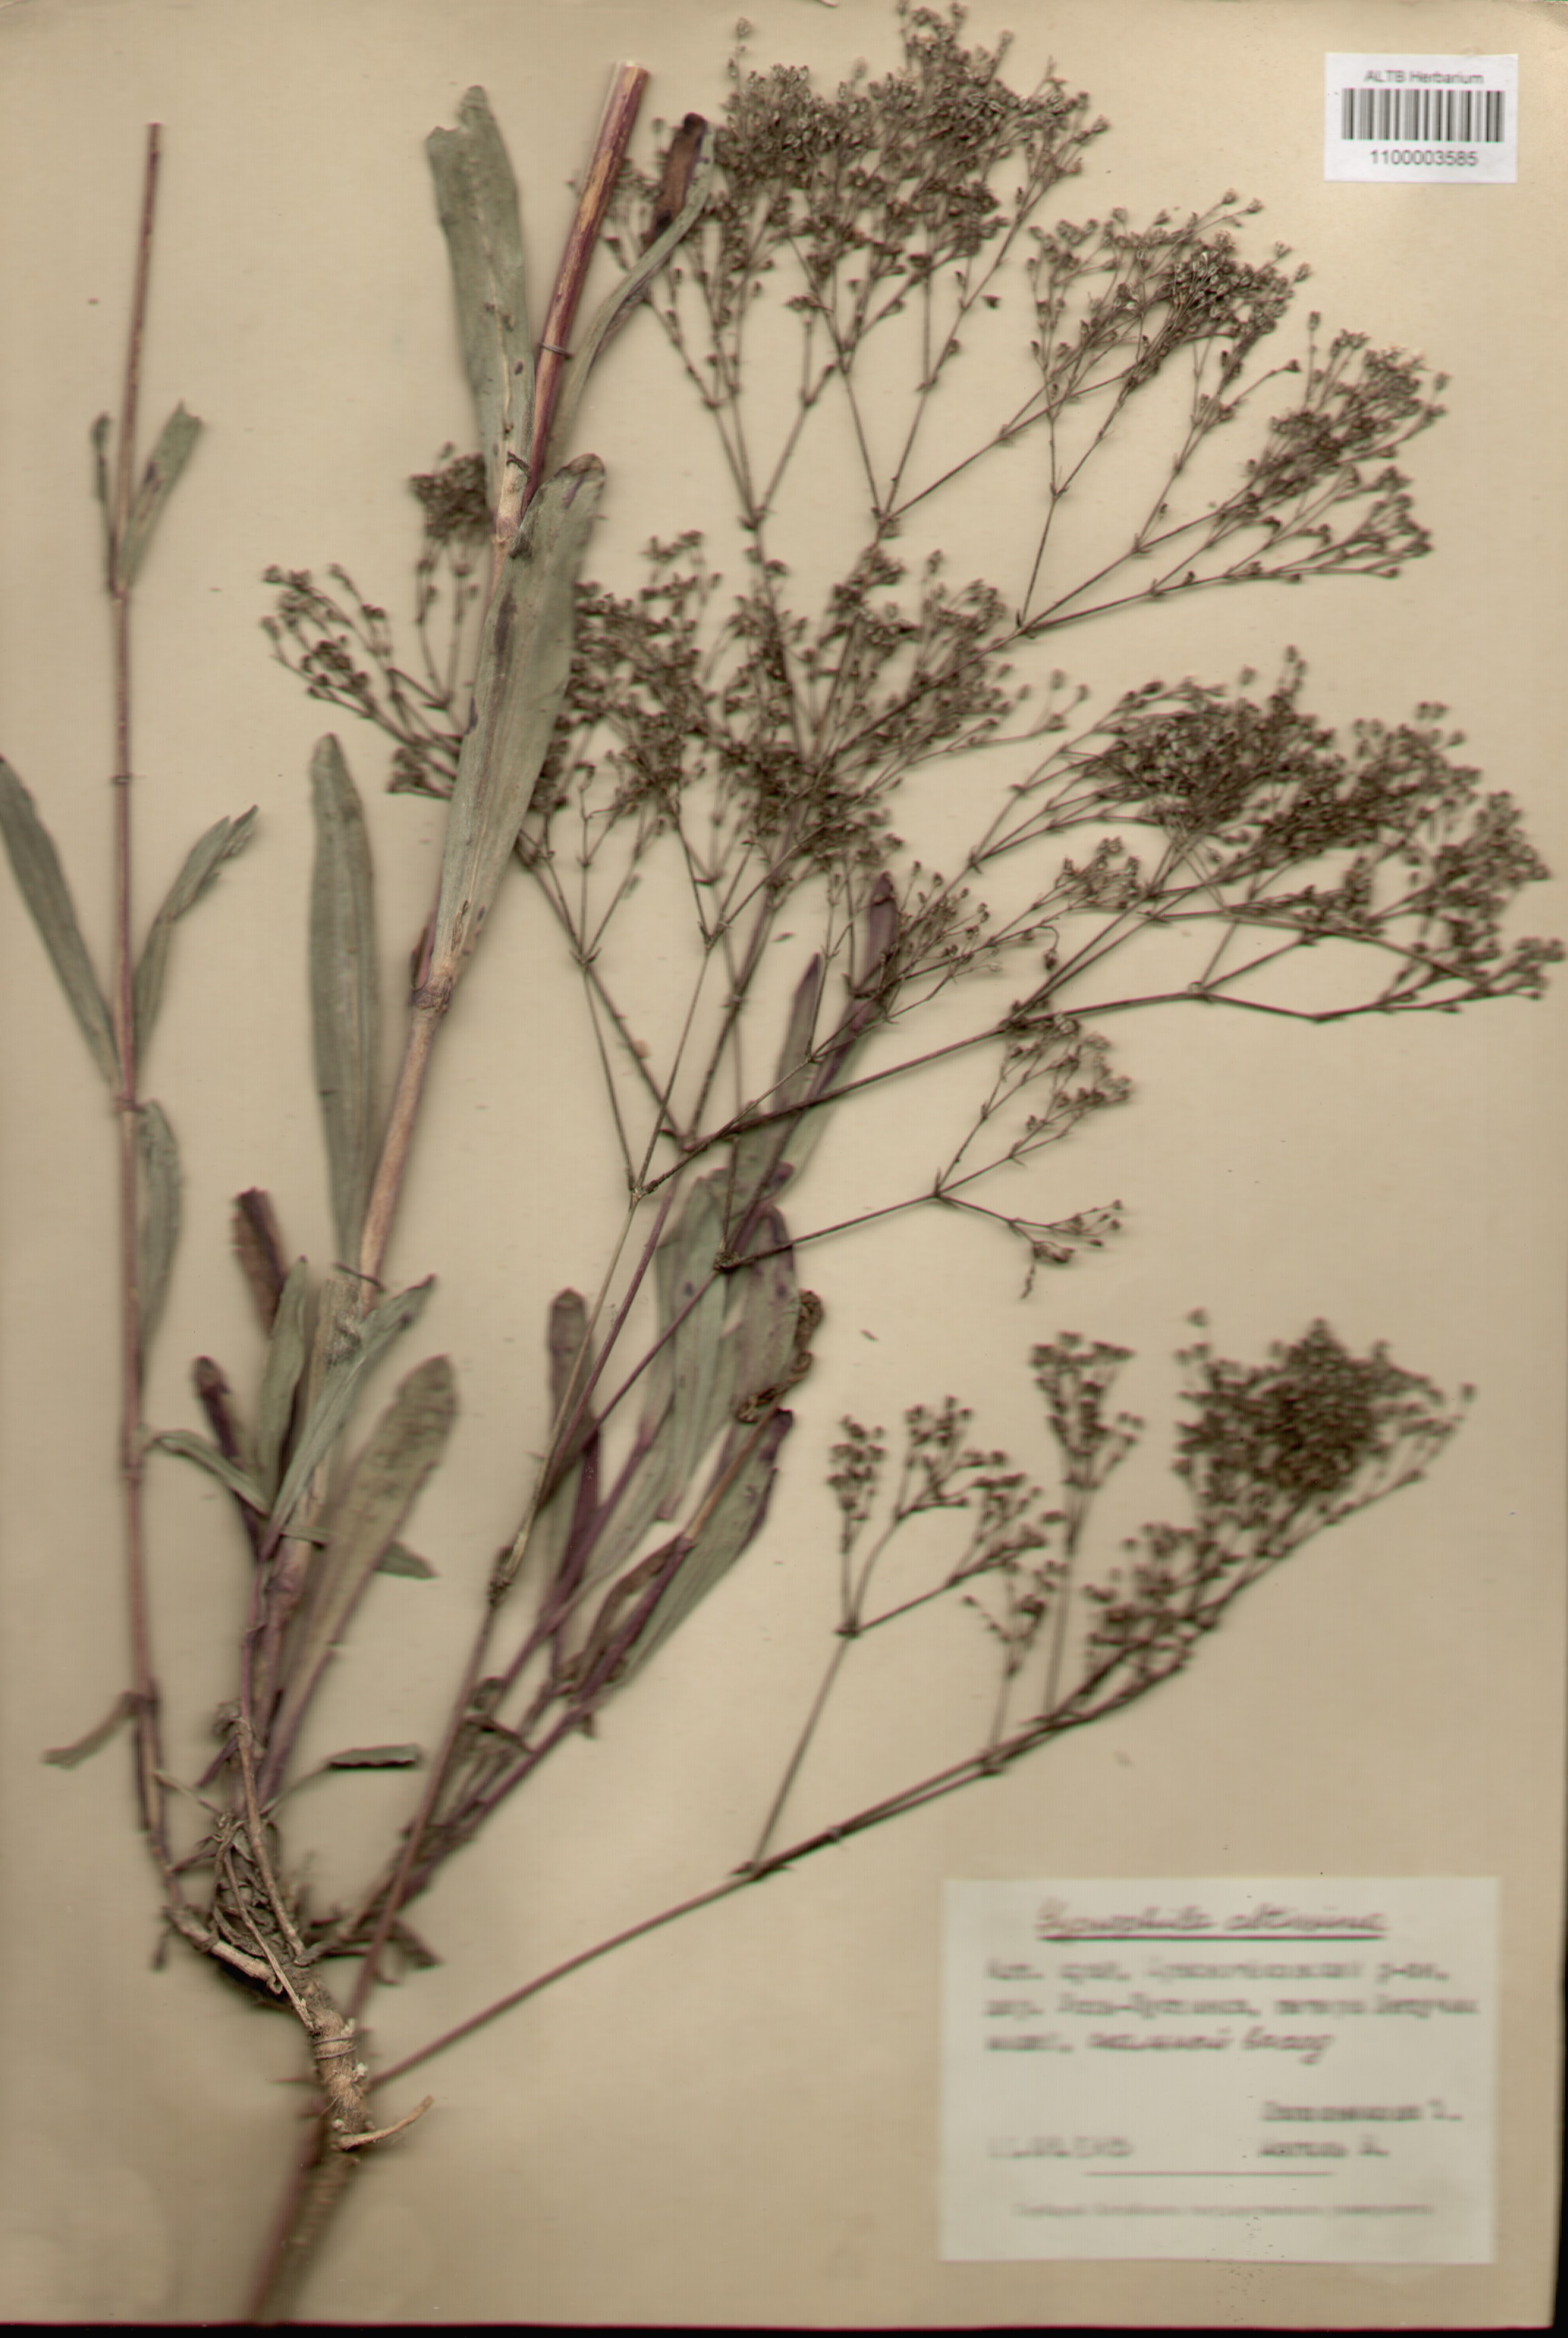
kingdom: Plantae
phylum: Tracheophyta
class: Magnoliopsida
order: Caryophyllales
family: Caryophyllaceae
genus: Gypsophila
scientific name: Gypsophila altissima
